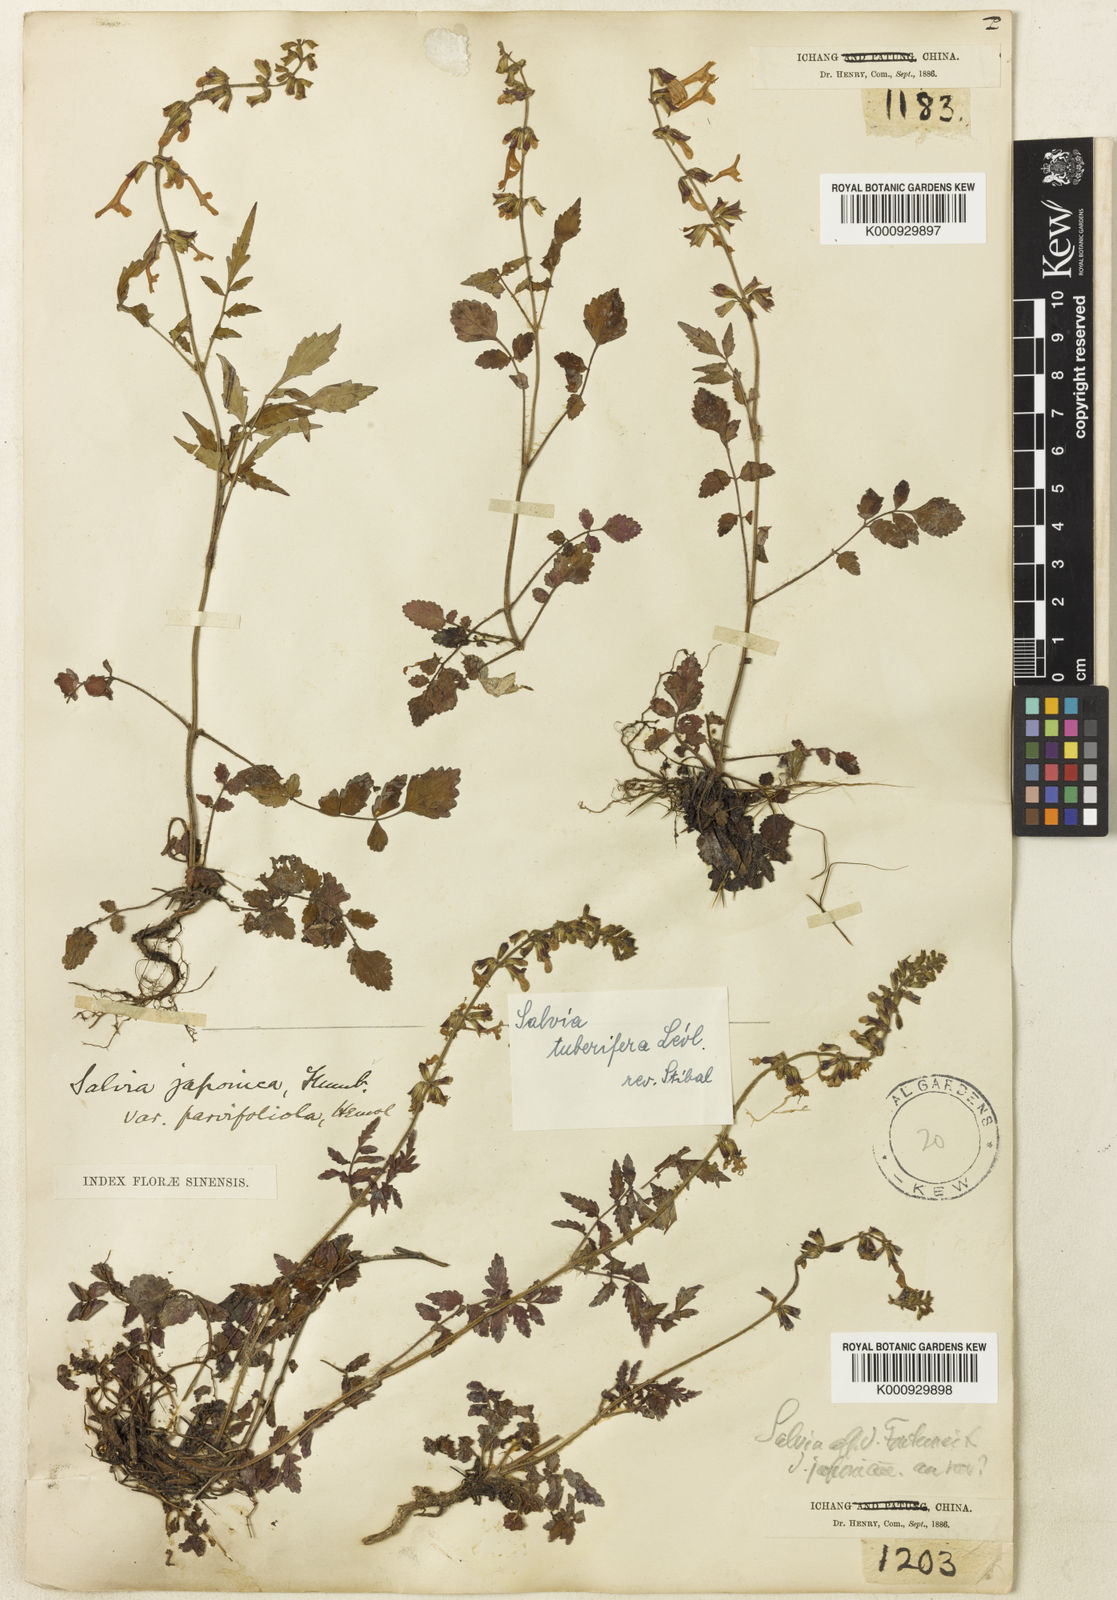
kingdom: Plantae
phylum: Tracheophyta
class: Magnoliopsida
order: Lamiales
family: Lamiaceae
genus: Salvia
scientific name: Salvia
